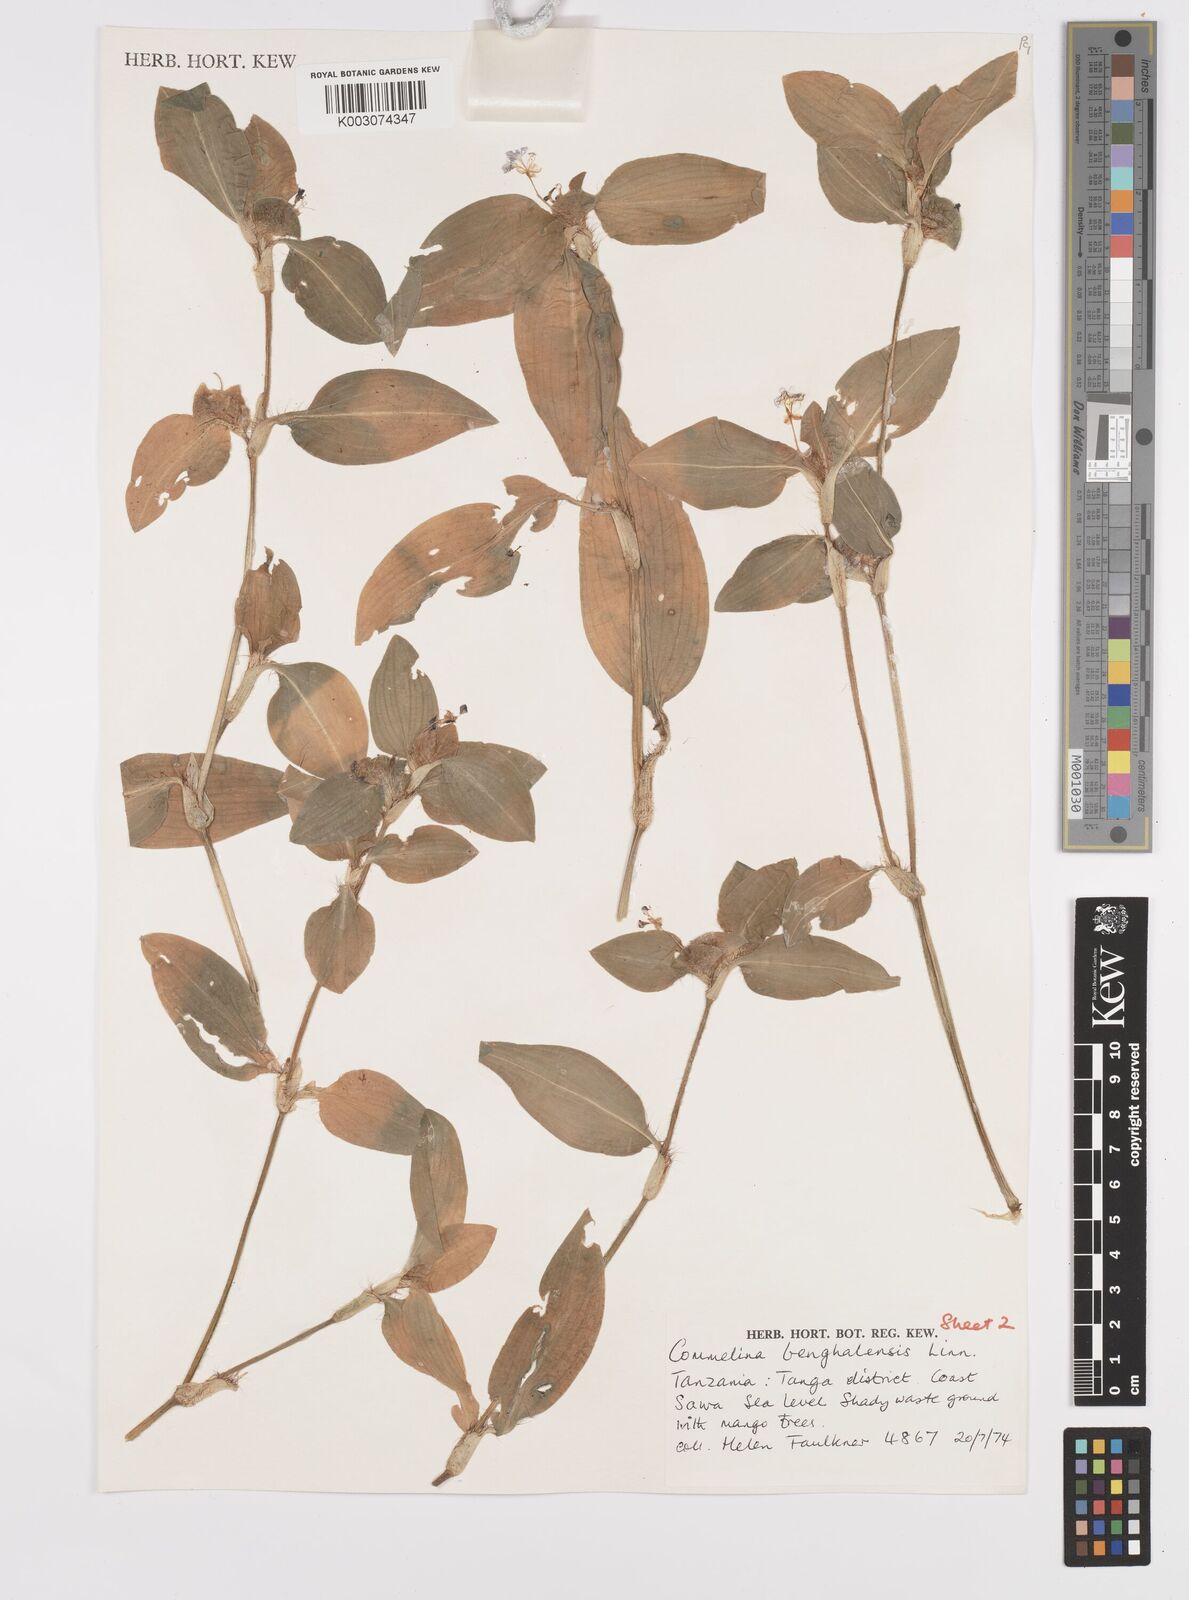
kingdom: Plantae
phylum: Tracheophyta
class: Liliopsida
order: Commelinales
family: Commelinaceae
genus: Commelina
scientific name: Commelina benghalensis
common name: Jio
